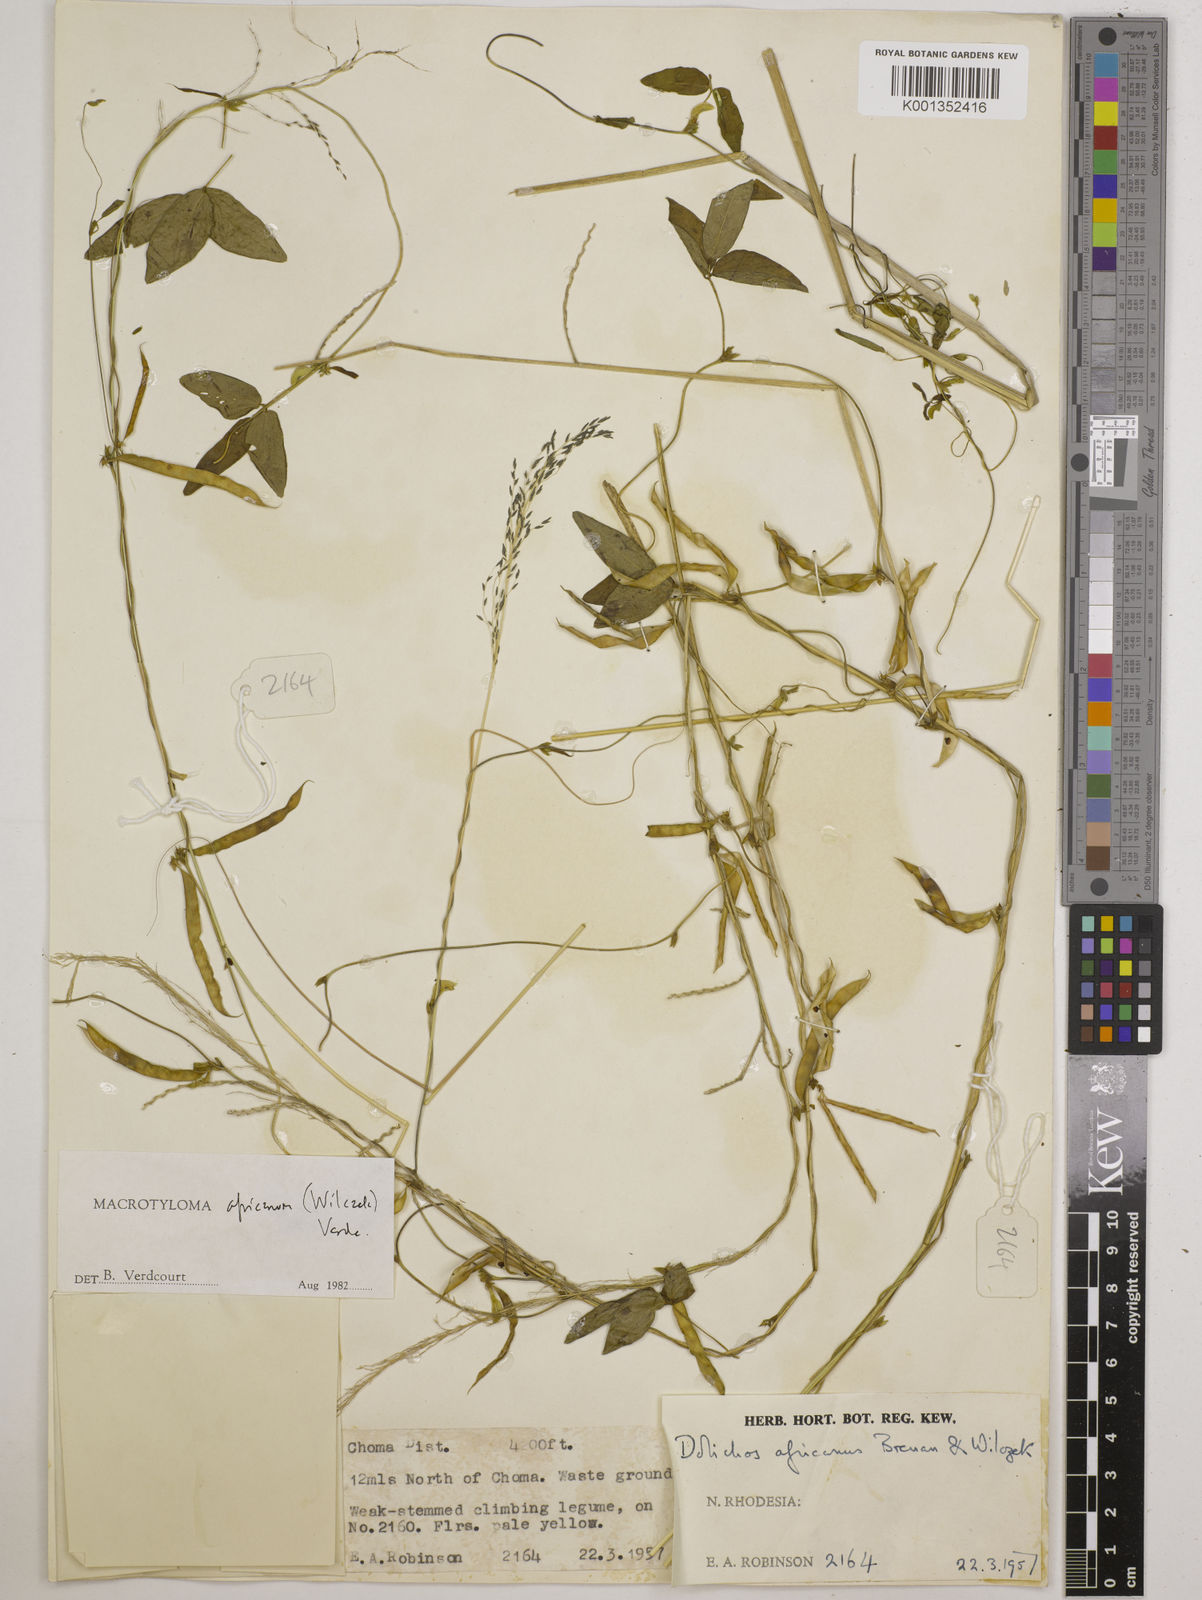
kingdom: Plantae
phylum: Tracheophyta
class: Magnoliopsida
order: Fabales
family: Fabaceae
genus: Macrotyloma
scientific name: Macrotyloma africanum
